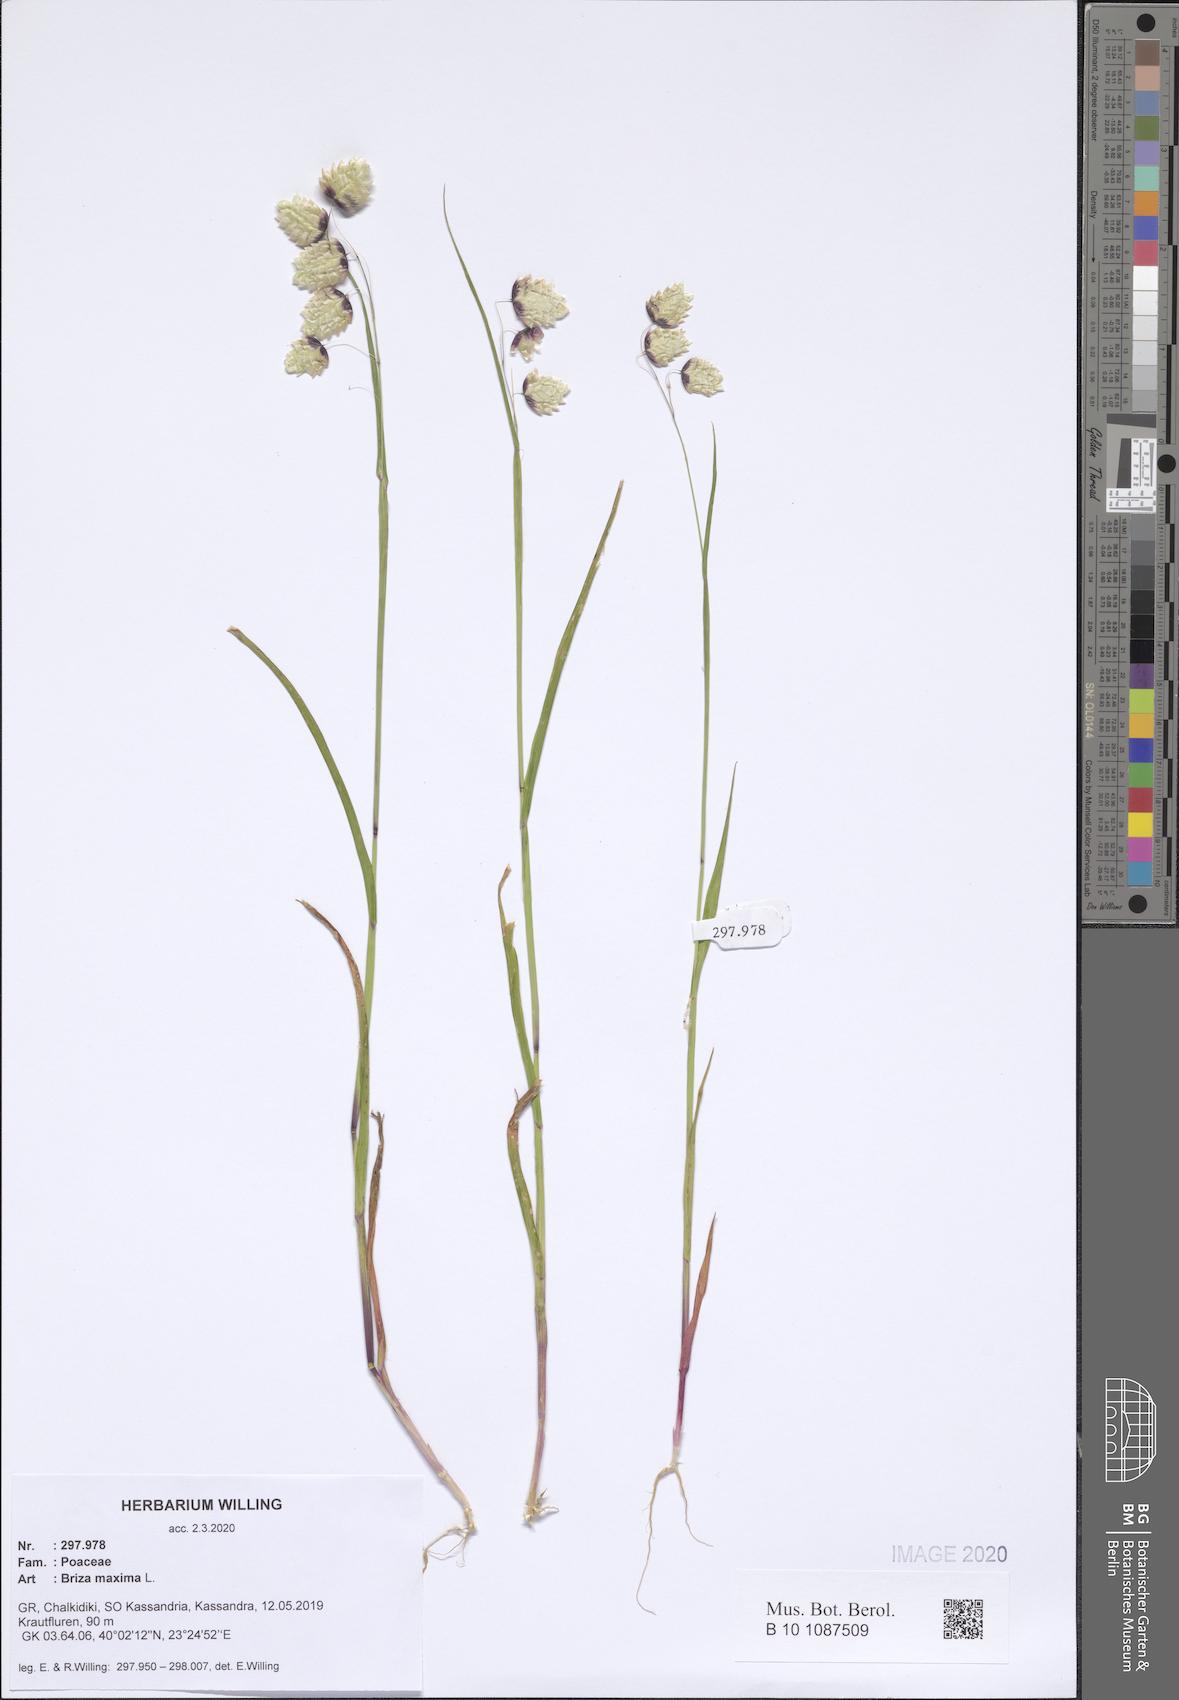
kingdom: Plantae
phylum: Tracheophyta
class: Liliopsida
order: Poales
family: Poaceae
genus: Briza
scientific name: Briza maxima
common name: Big quakinggrass
